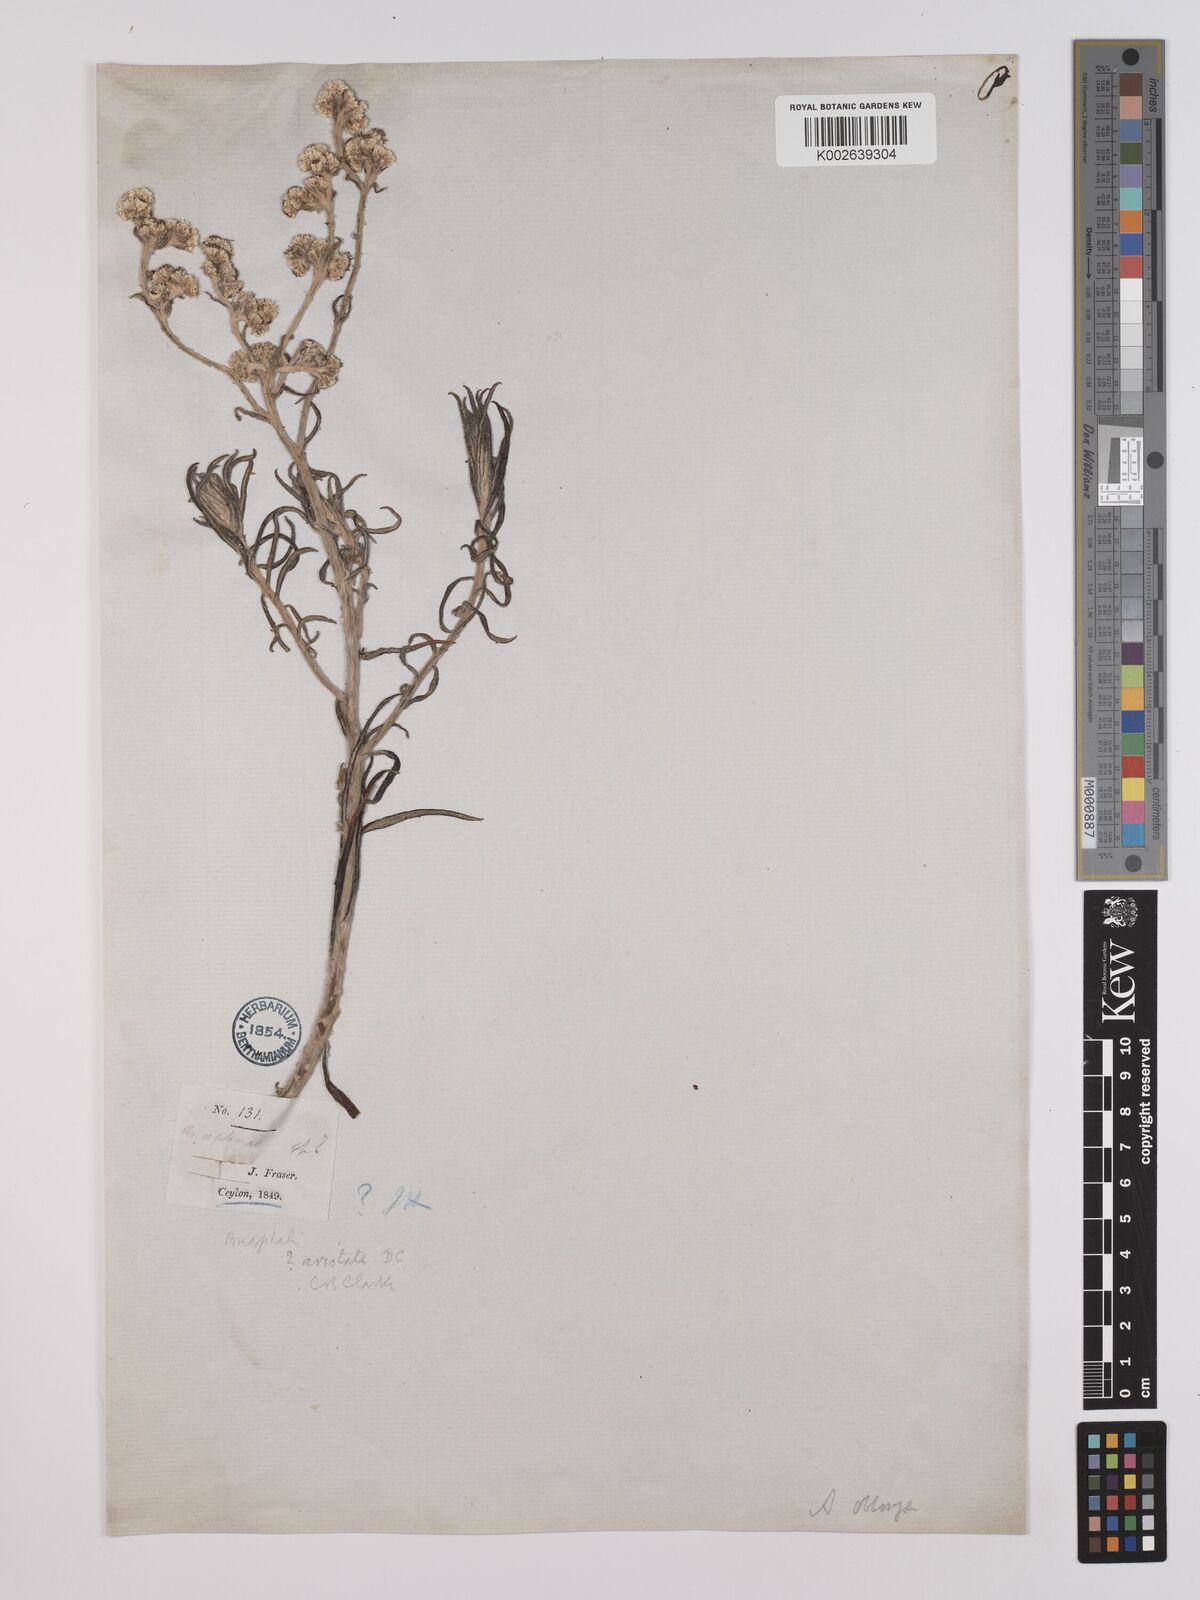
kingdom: Plantae
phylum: Tracheophyta
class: Magnoliopsida
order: Asterales
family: Asteraceae
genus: Anaphalis
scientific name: Anaphalis aristata
